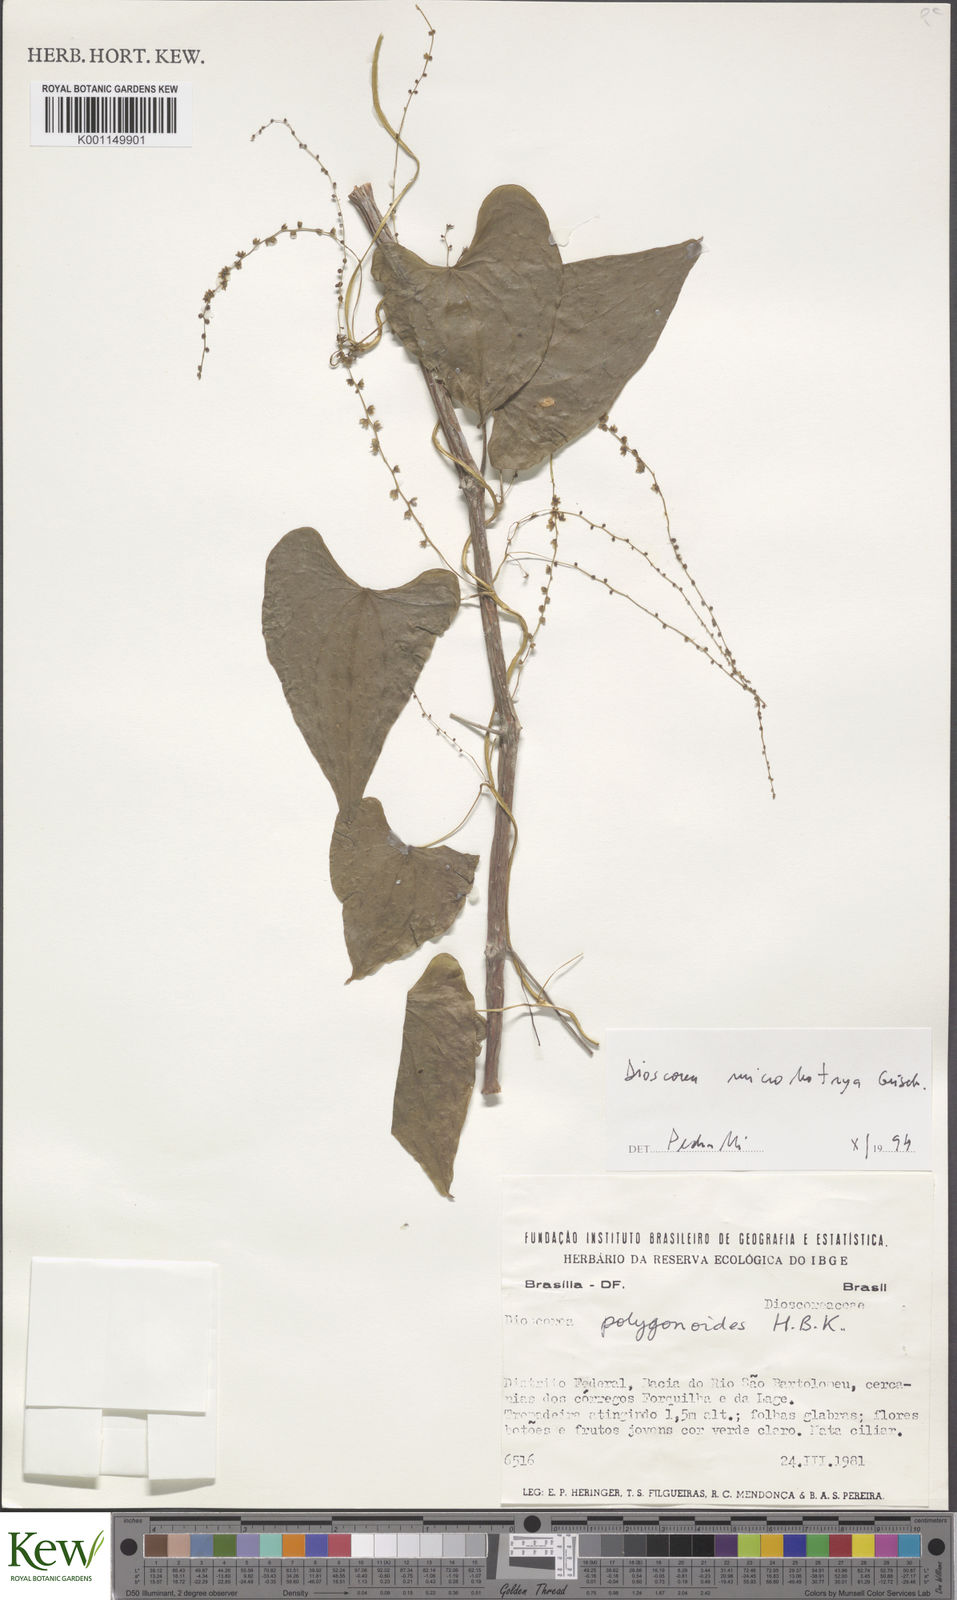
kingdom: Plantae
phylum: Tracheophyta
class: Liliopsida
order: Dioscoreales
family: Dioscoreaceae
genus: Dioscorea
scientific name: Dioscorea rumicoides
